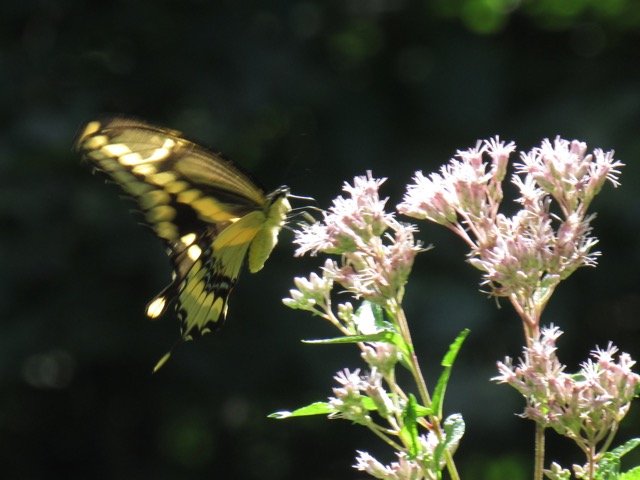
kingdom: Animalia
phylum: Arthropoda
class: Insecta
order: Lepidoptera
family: Papilionidae
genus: Papilio
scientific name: Papilio cresphontes
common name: Eastern Giant Swallowtail
